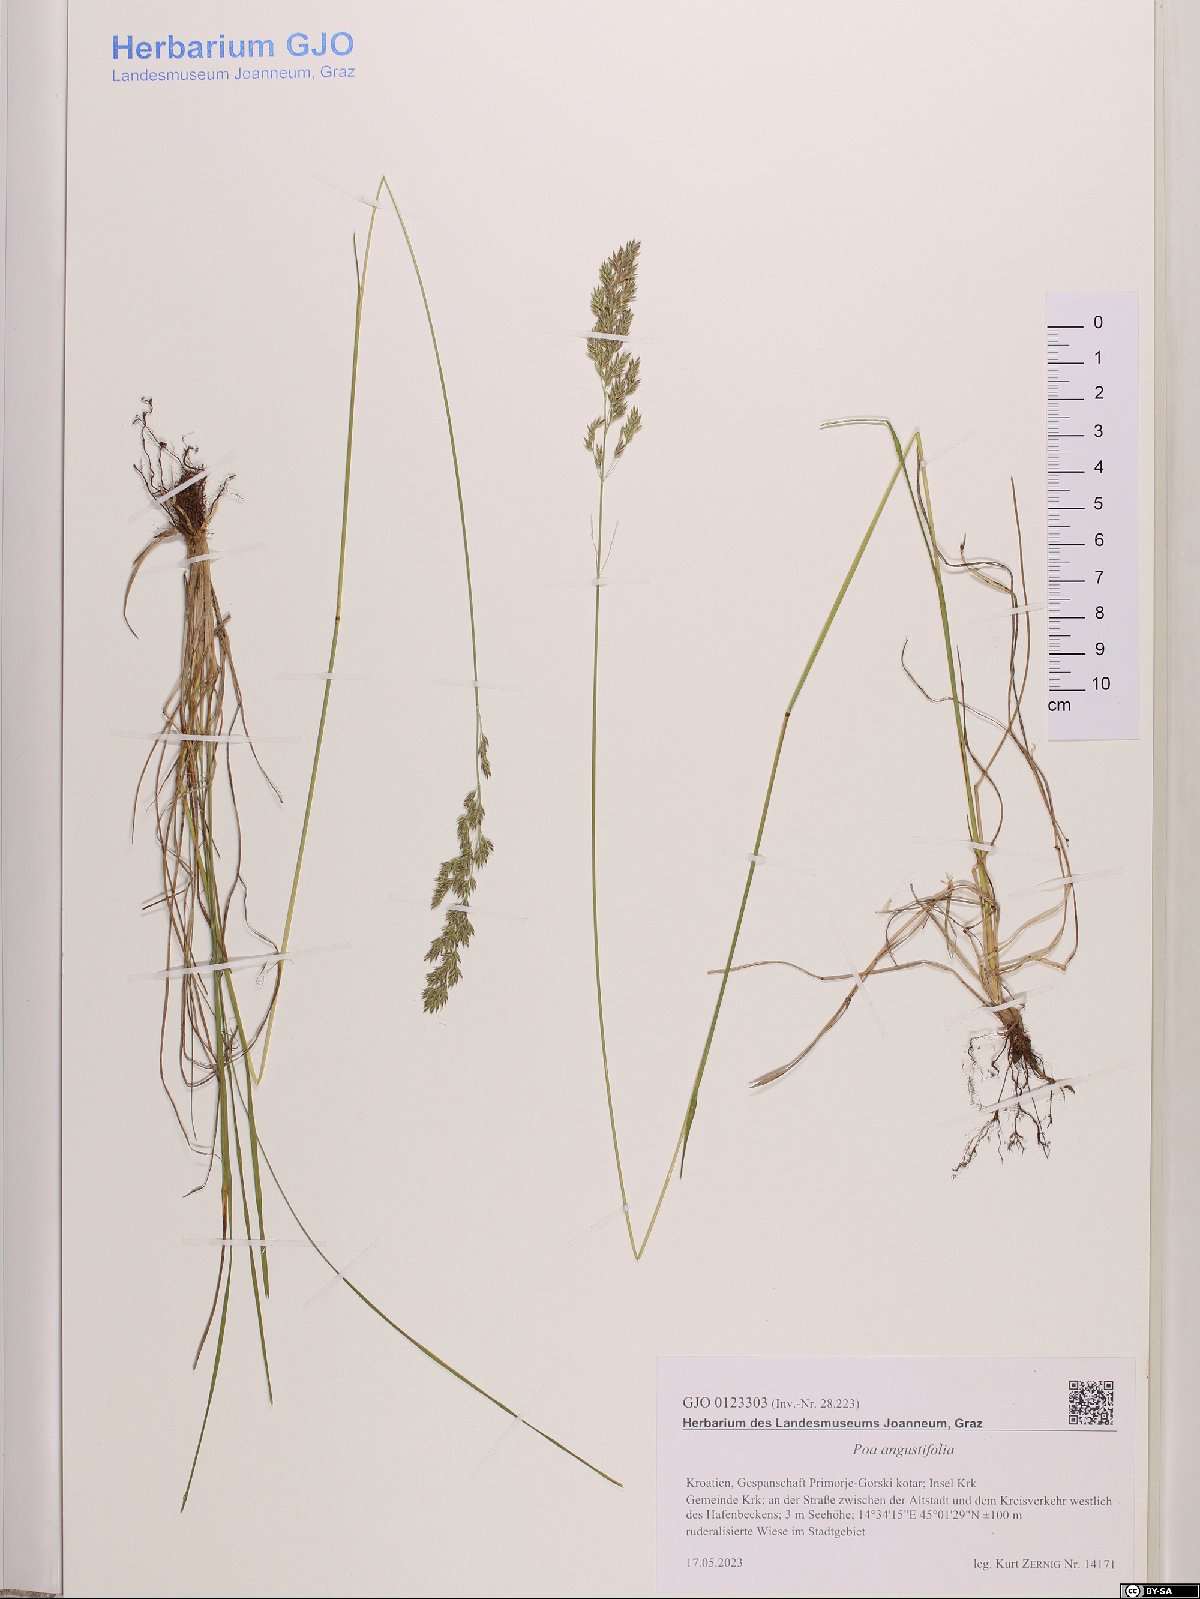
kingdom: Plantae
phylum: Tracheophyta
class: Liliopsida
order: Poales
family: Poaceae
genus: Poa
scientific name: Poa angustifolia
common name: Narrow-leaved meadow-grass
